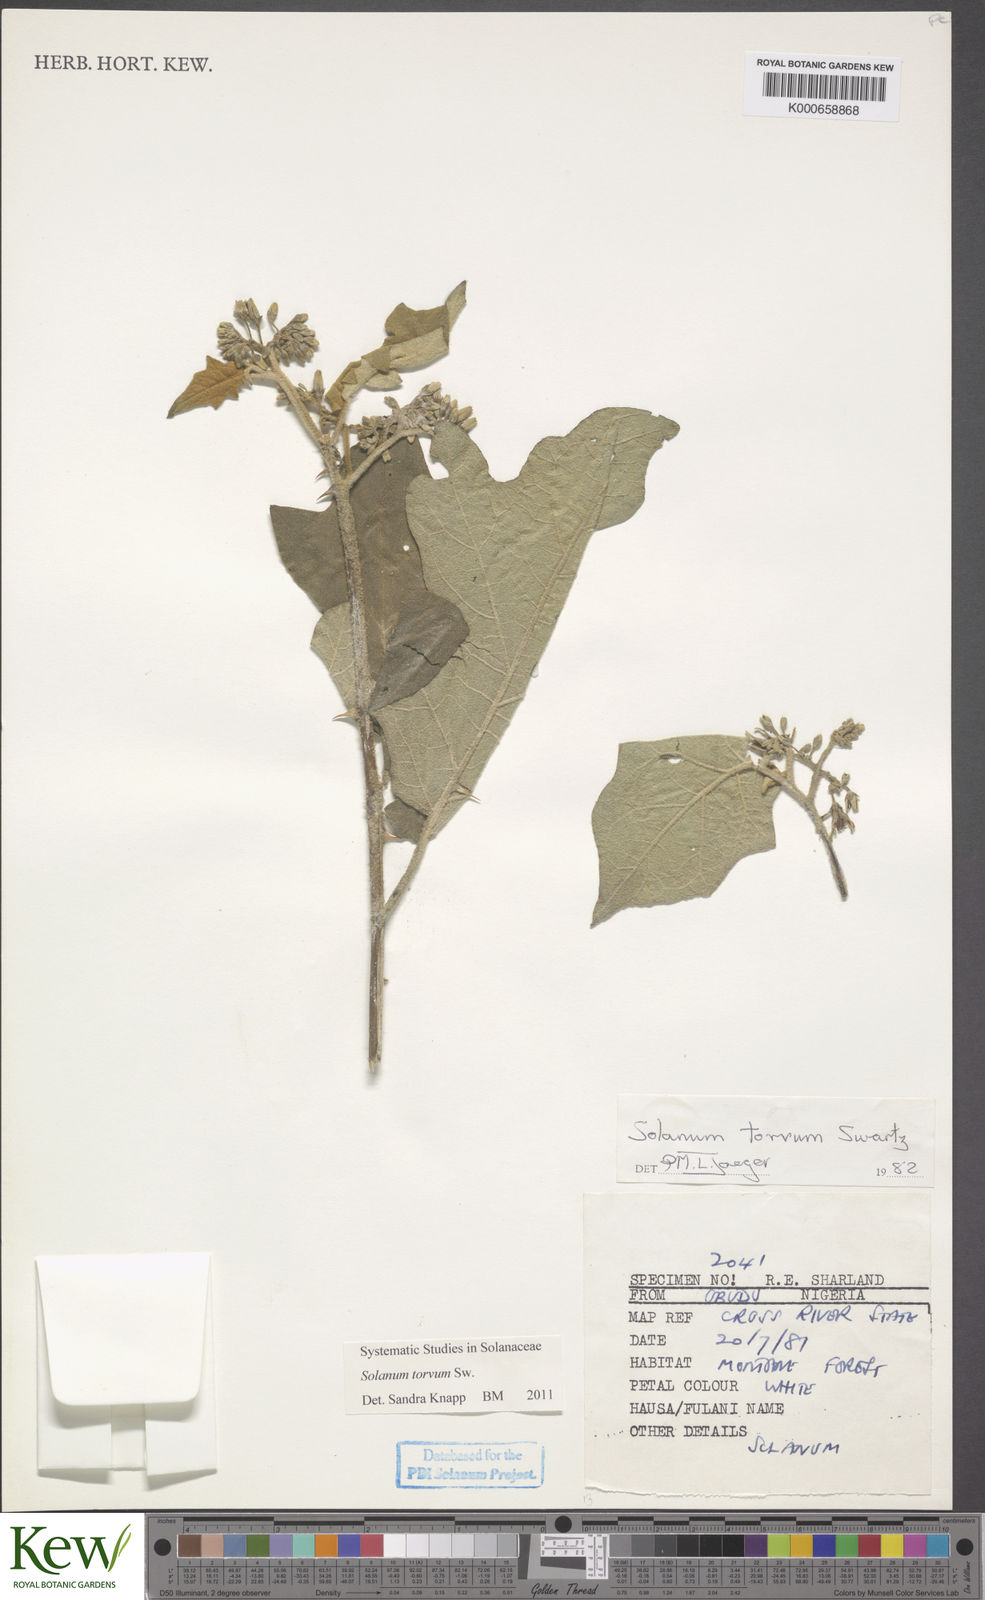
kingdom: Plantae
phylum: Tracheophyta
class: Magnoliopsida
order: Solanales
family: Solanaceae
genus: Solanum
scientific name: Solanum torvum
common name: Turkey berry
